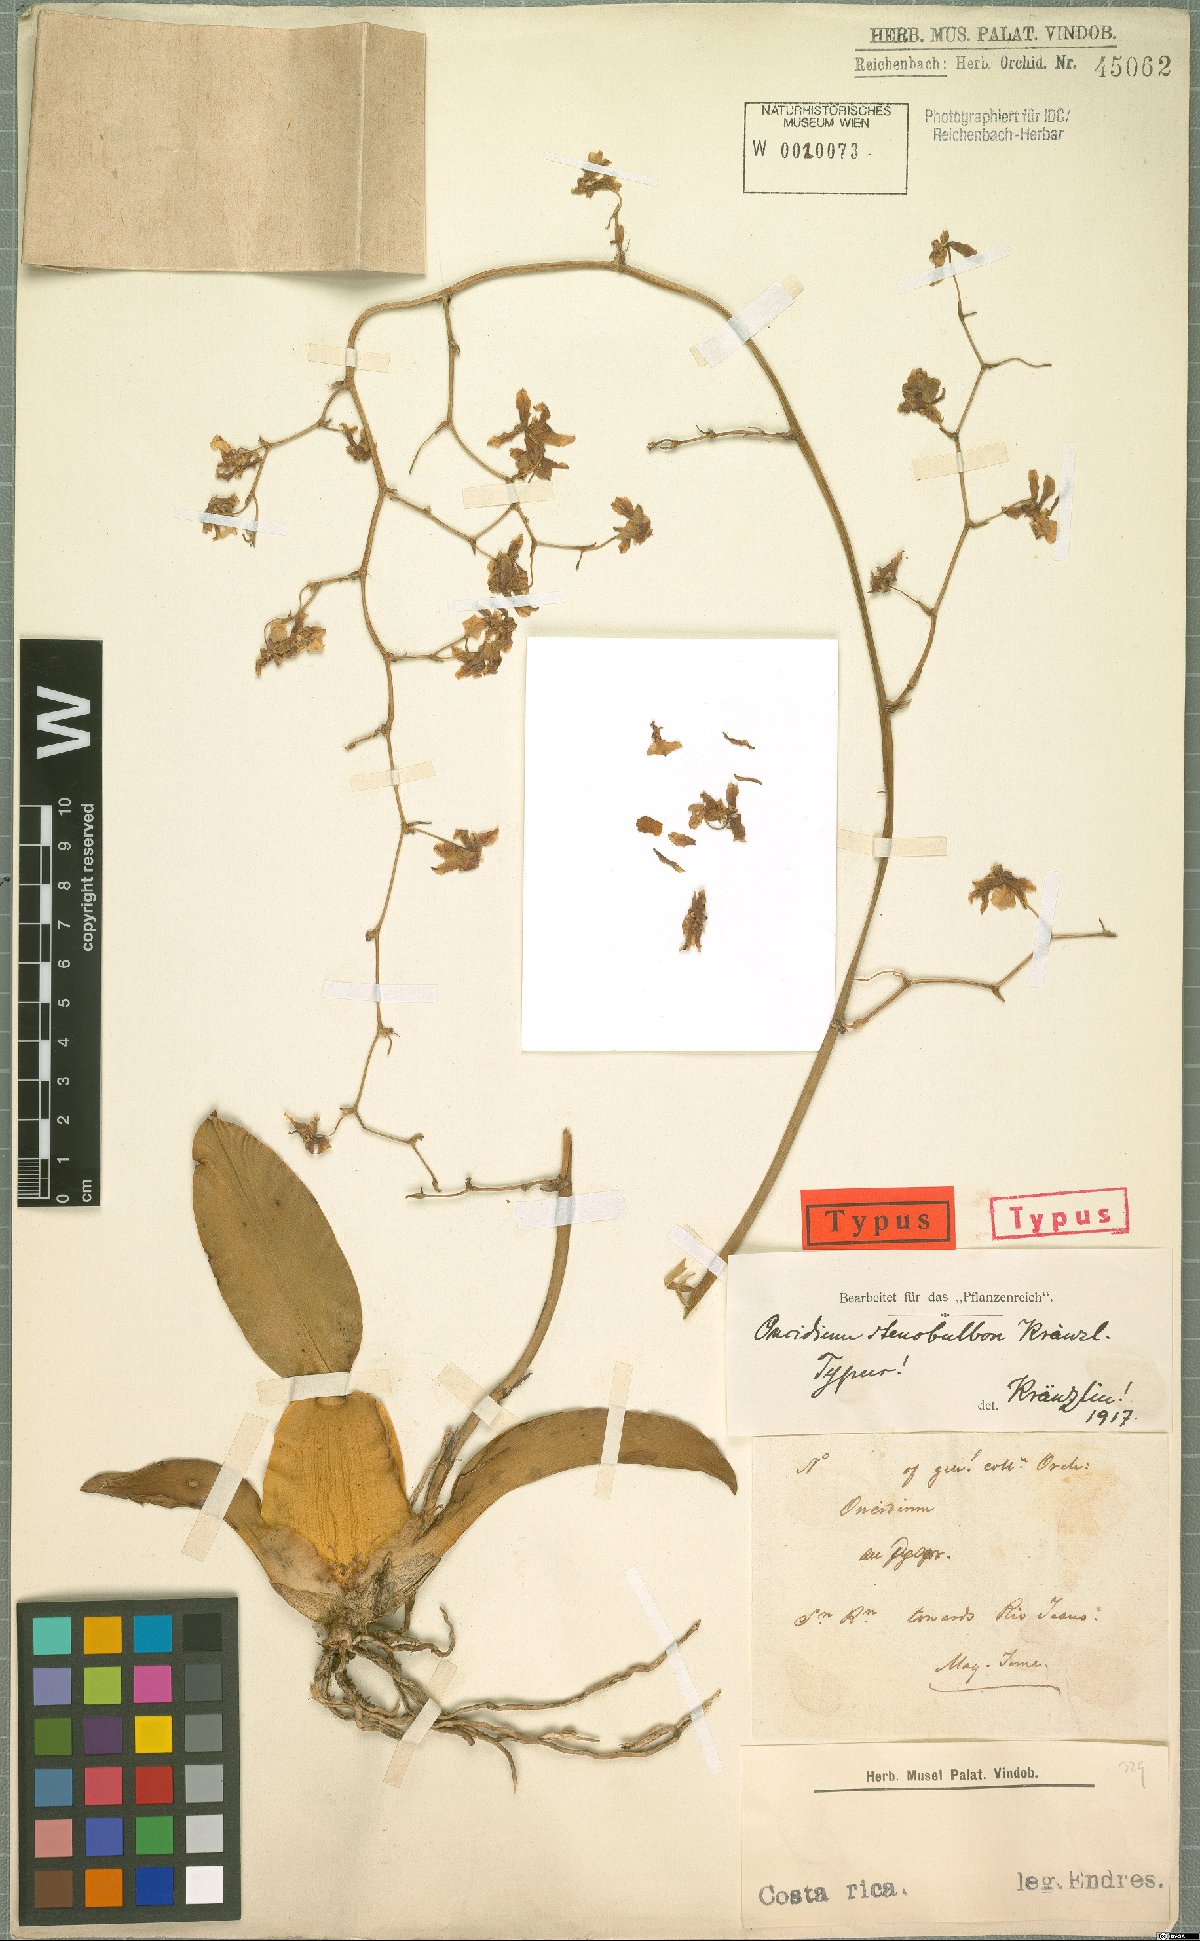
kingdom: Plantae
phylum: Tracheophyta
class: Liliopsida
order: Asparagales
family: Orchidaceae
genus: Oncidium
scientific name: Oncidium stenobulbon
